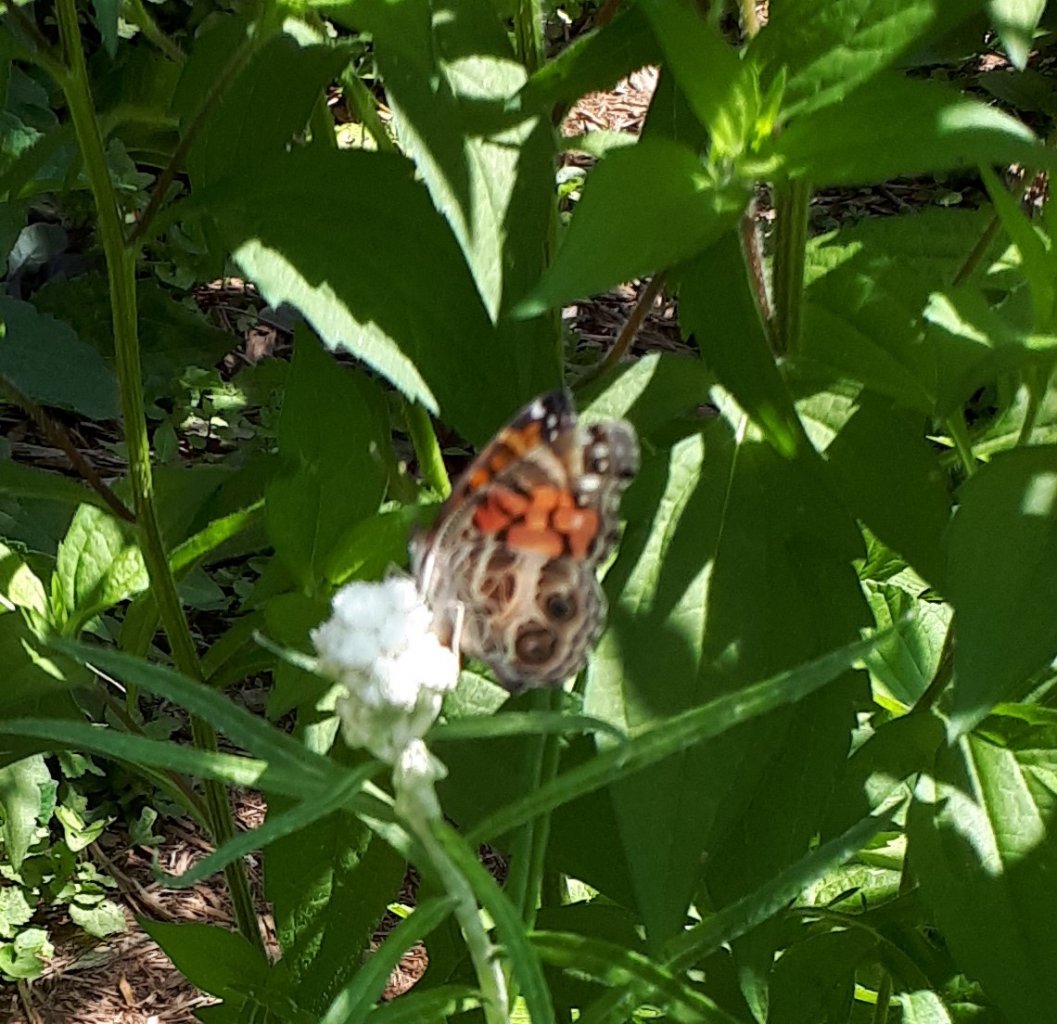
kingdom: Animalia
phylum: Arthropoda
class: Insecta
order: Lepidoptera
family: Nymphalidae
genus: Vanessa
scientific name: Vanessa virginiensis
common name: American Lady
